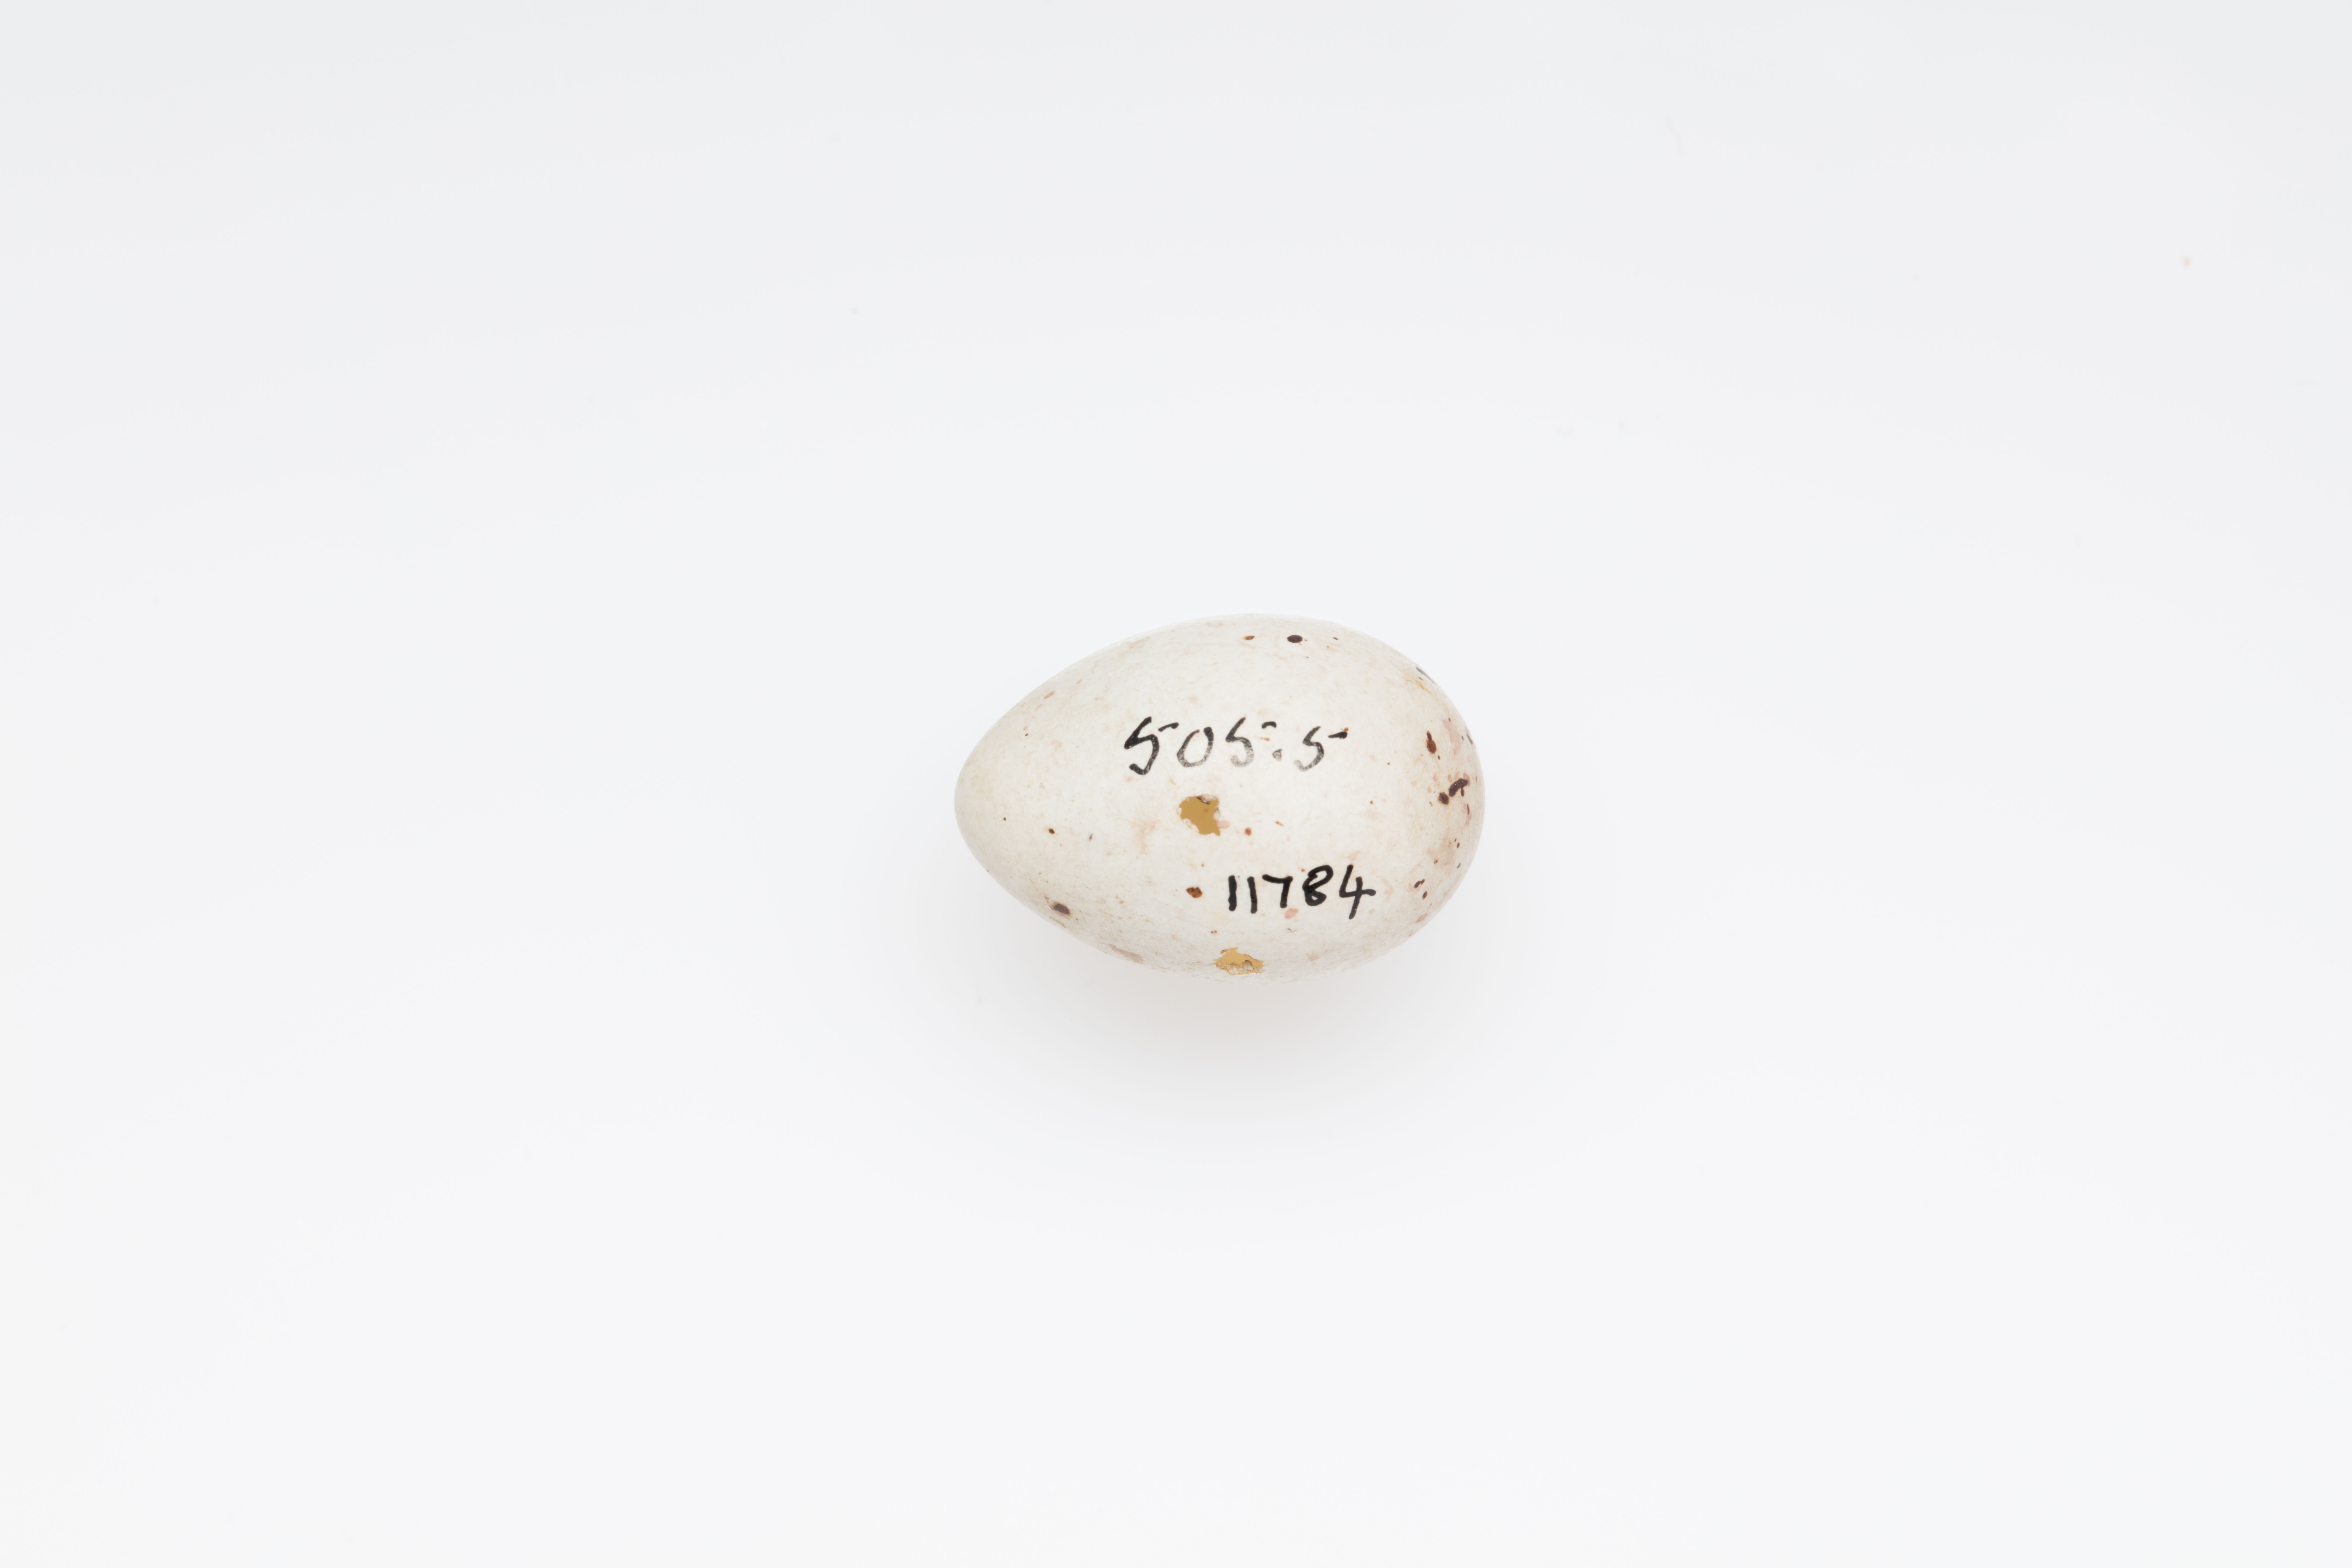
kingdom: Plantae
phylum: Tracheophyta
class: Liliopsida
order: Poales
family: Poaceae
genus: Chloris
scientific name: Chloris chloris
